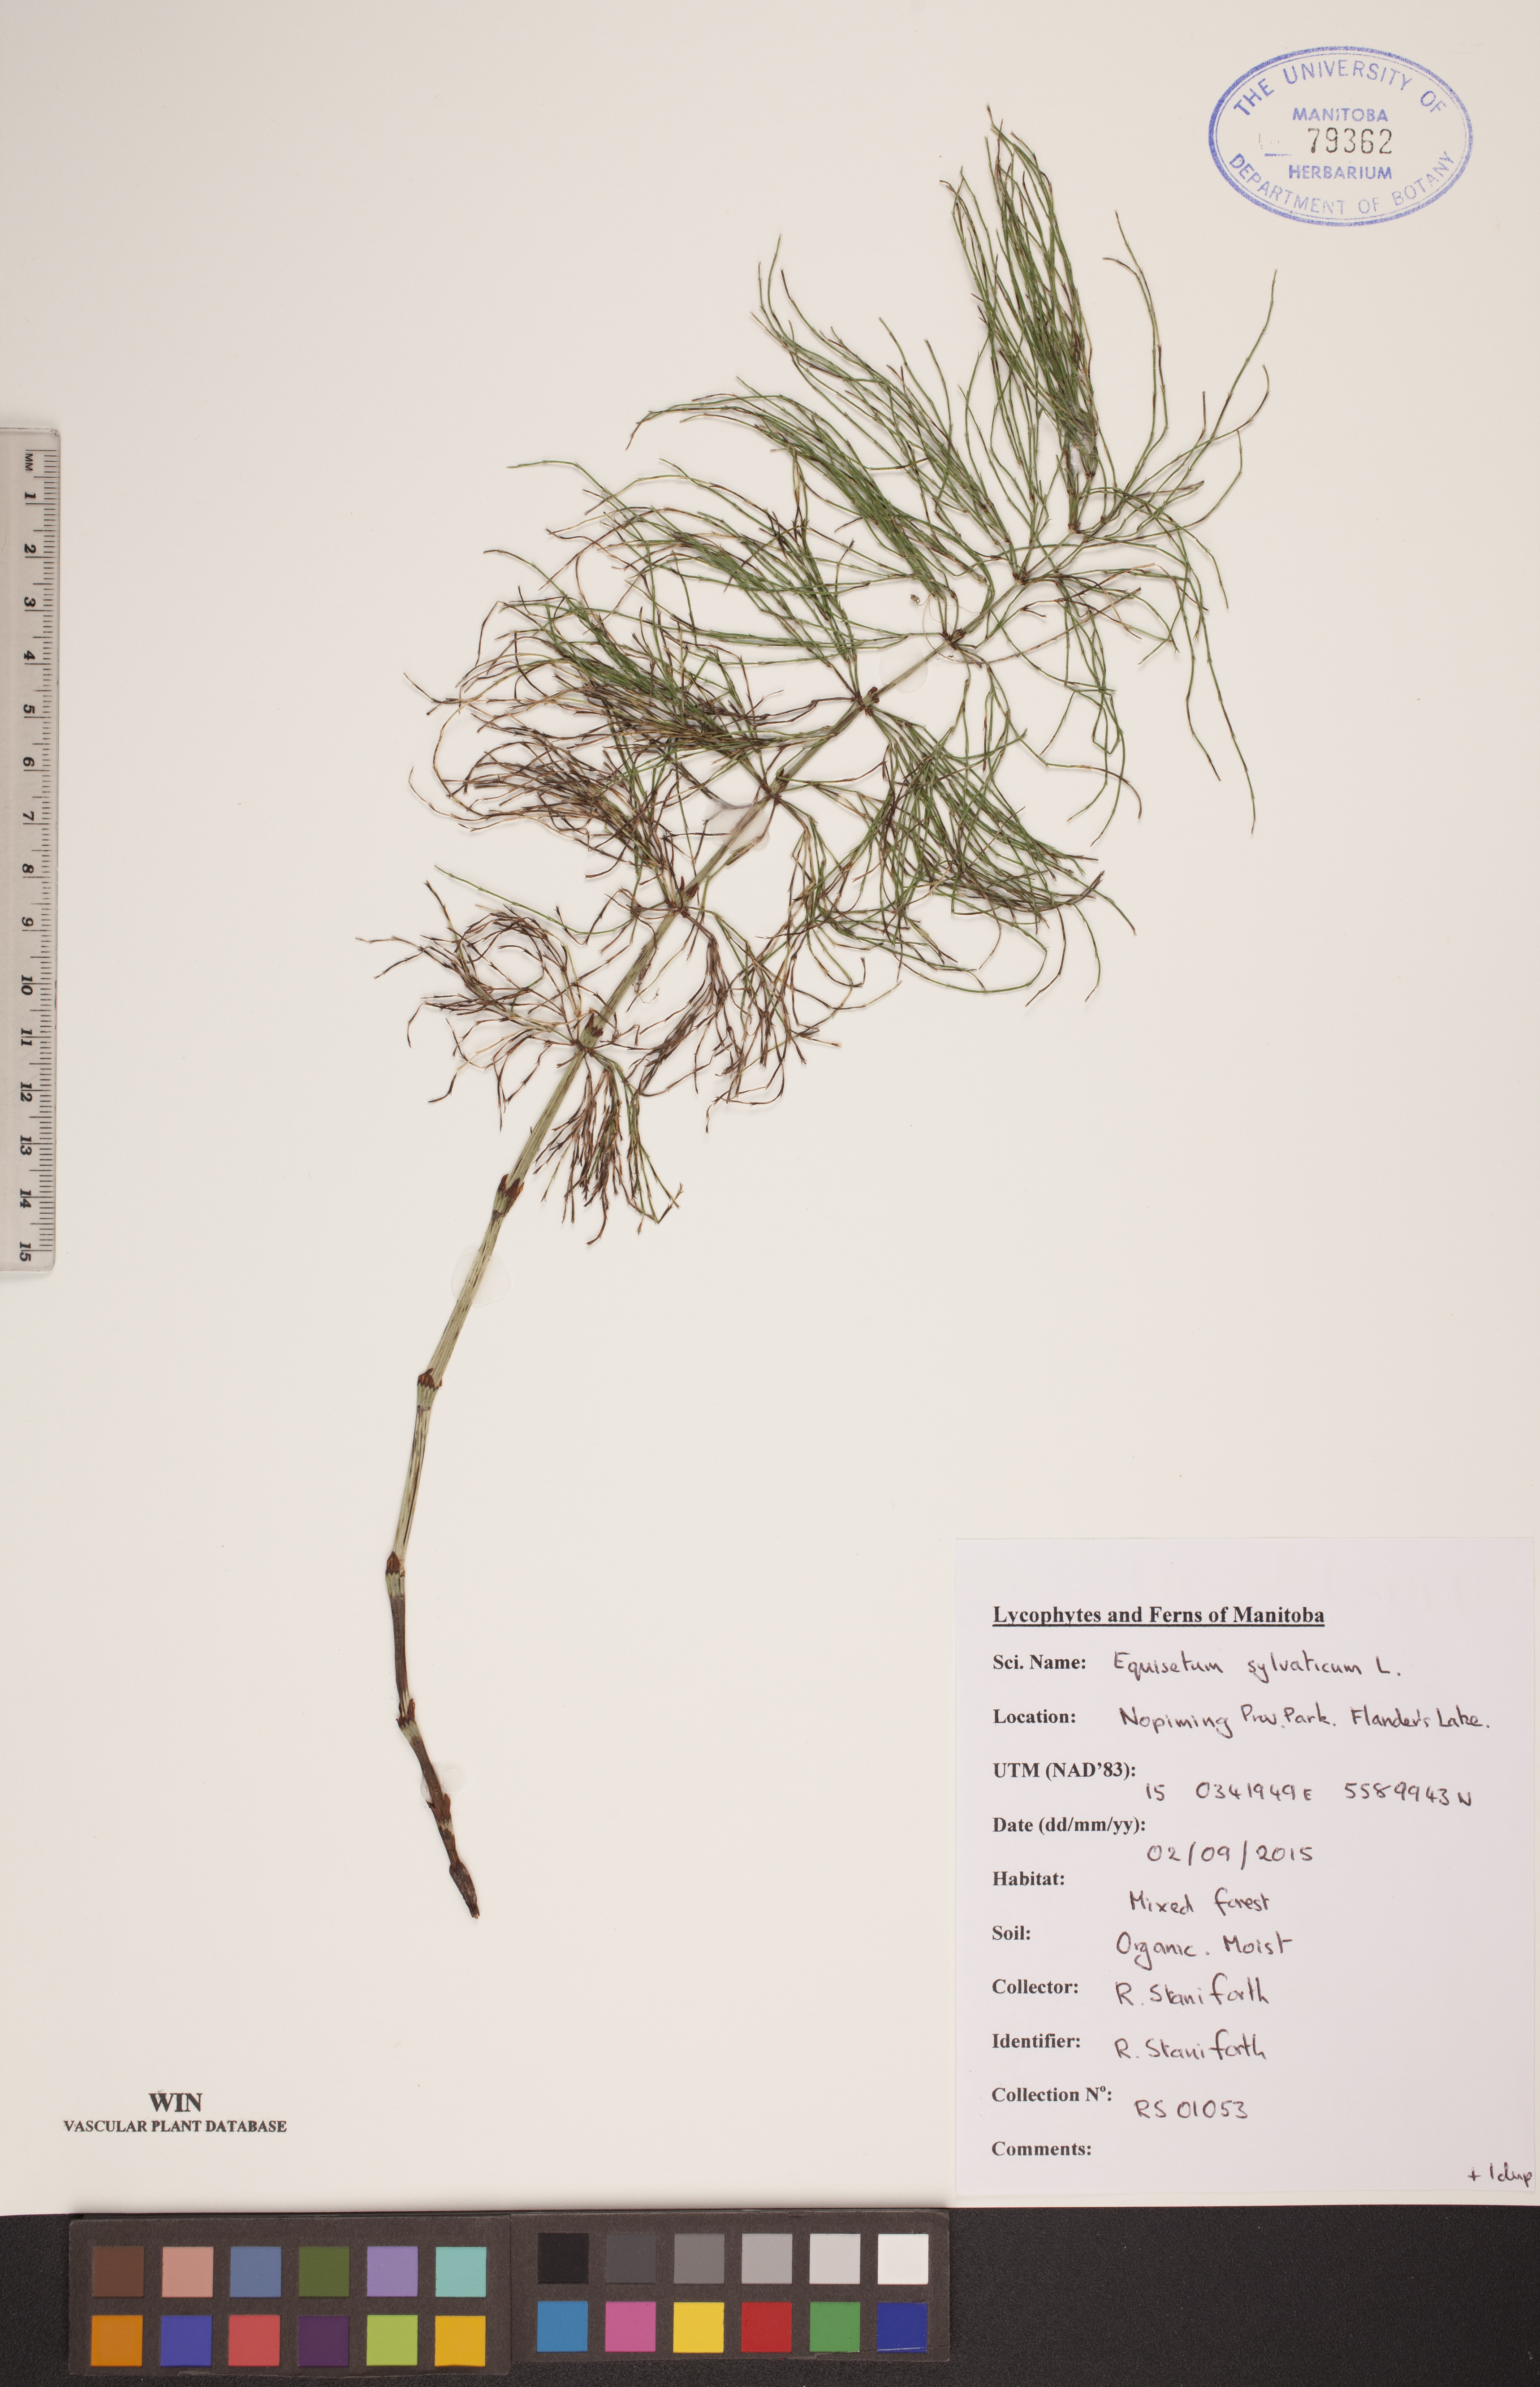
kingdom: Plantae
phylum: Tracheophyta
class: Polypodiopsida
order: Equisetales
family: Equisetaceae
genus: Equisetum
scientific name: Equisetum sylvaticum
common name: Wood horsetail
